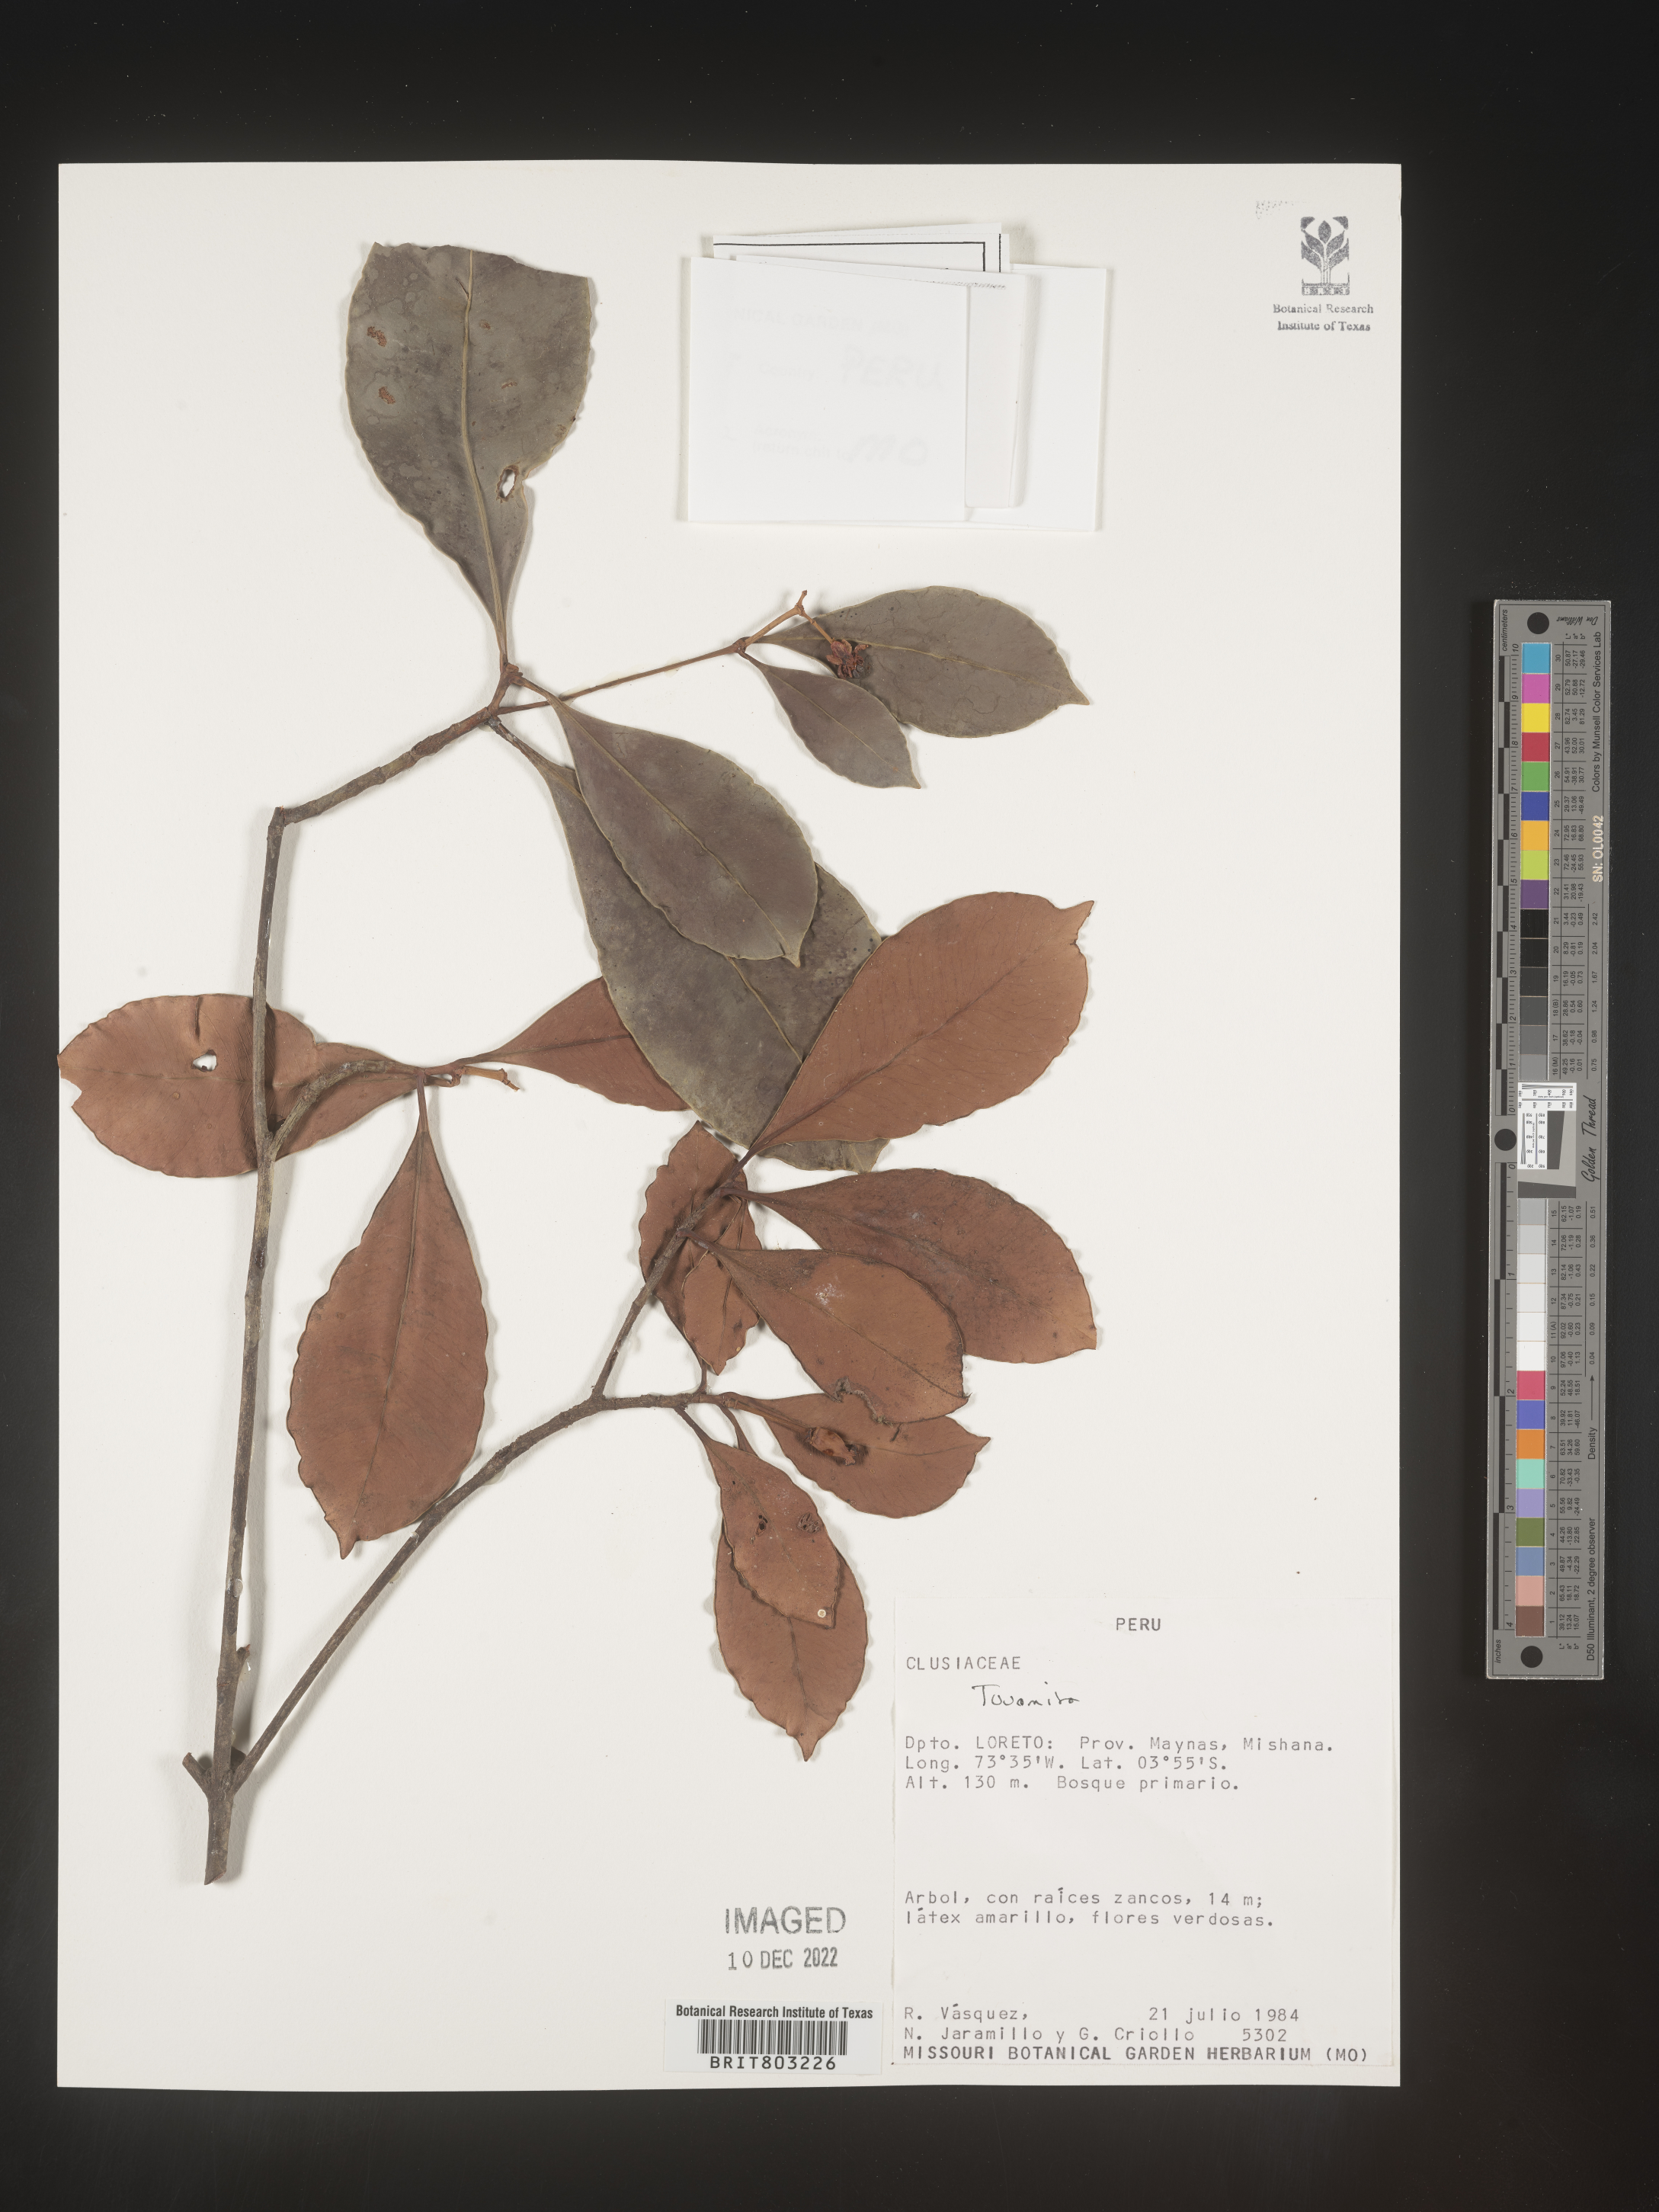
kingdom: Plantae
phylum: Tracheophyta
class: Magnoliopsida
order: Malpighiales
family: Clusiaceae
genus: Tovomita
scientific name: Tovomita
